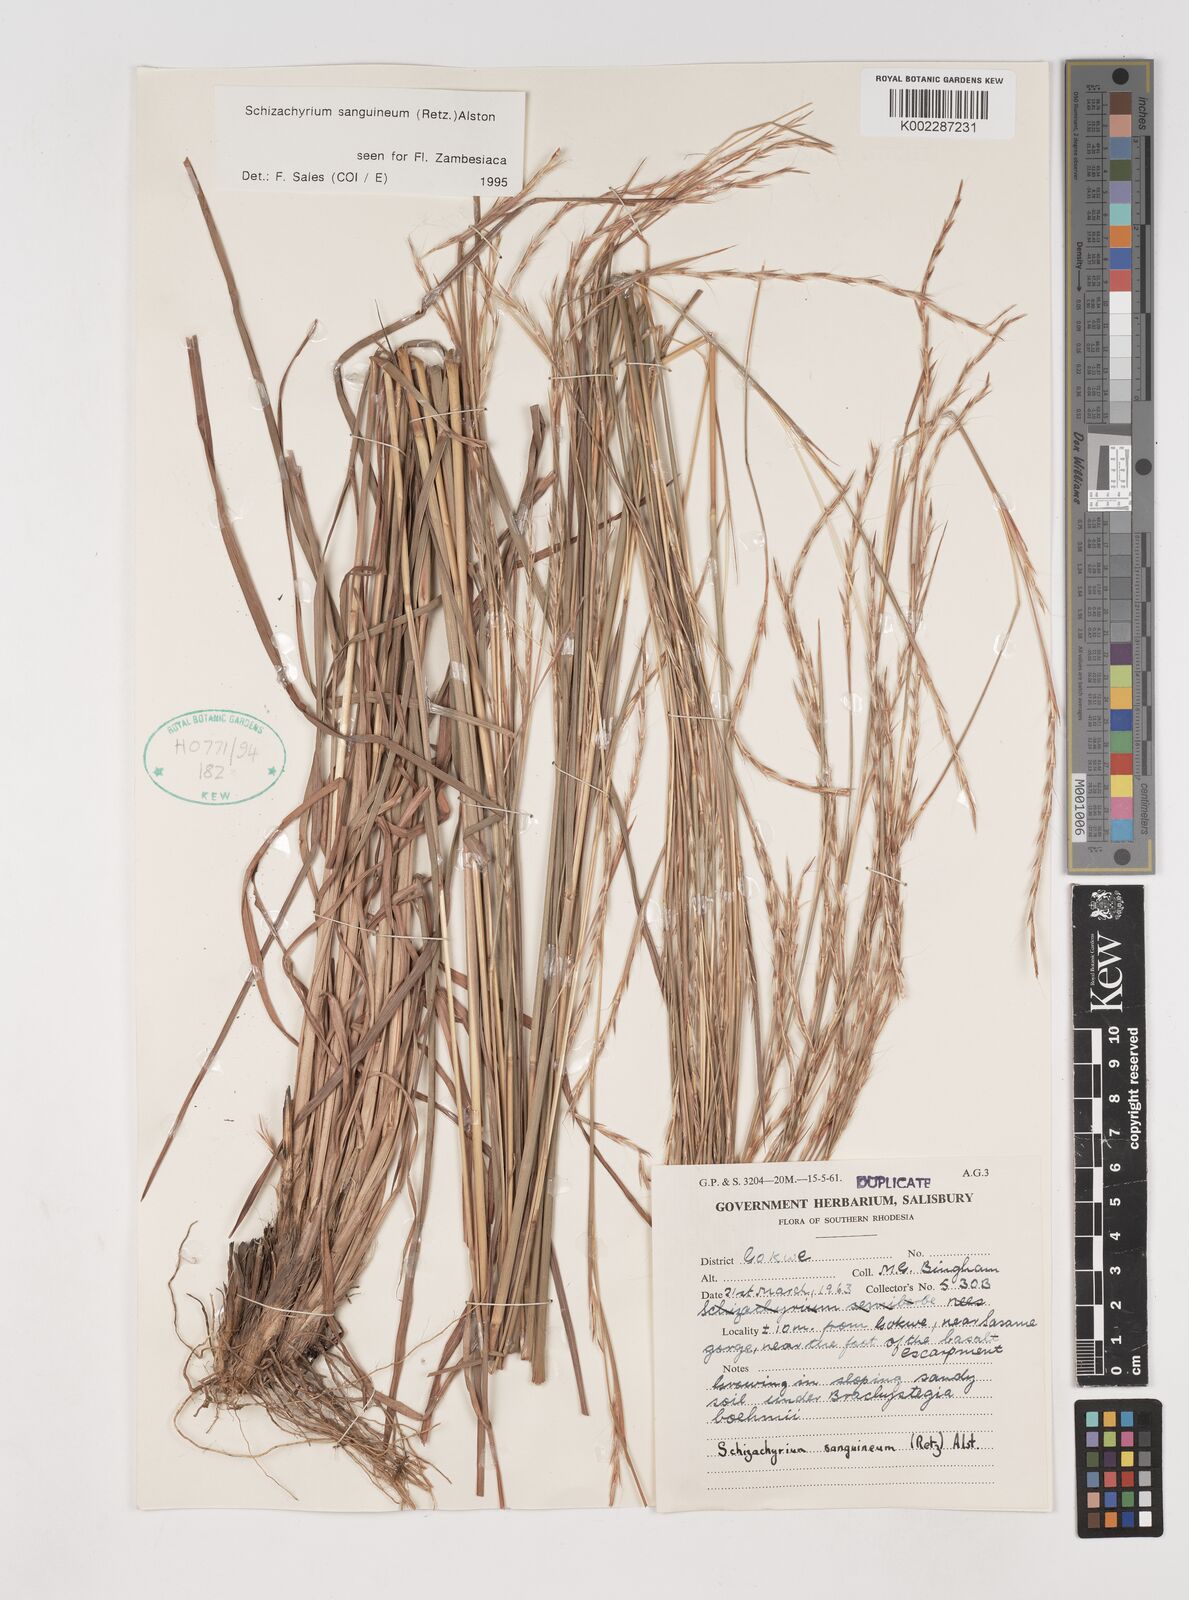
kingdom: Plantae
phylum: Tracheophyta
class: Liliopsida
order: Poales
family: Poaceae
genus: Schizachyrium
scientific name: Schizachyrium sanguineum
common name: Crimson bluestem
